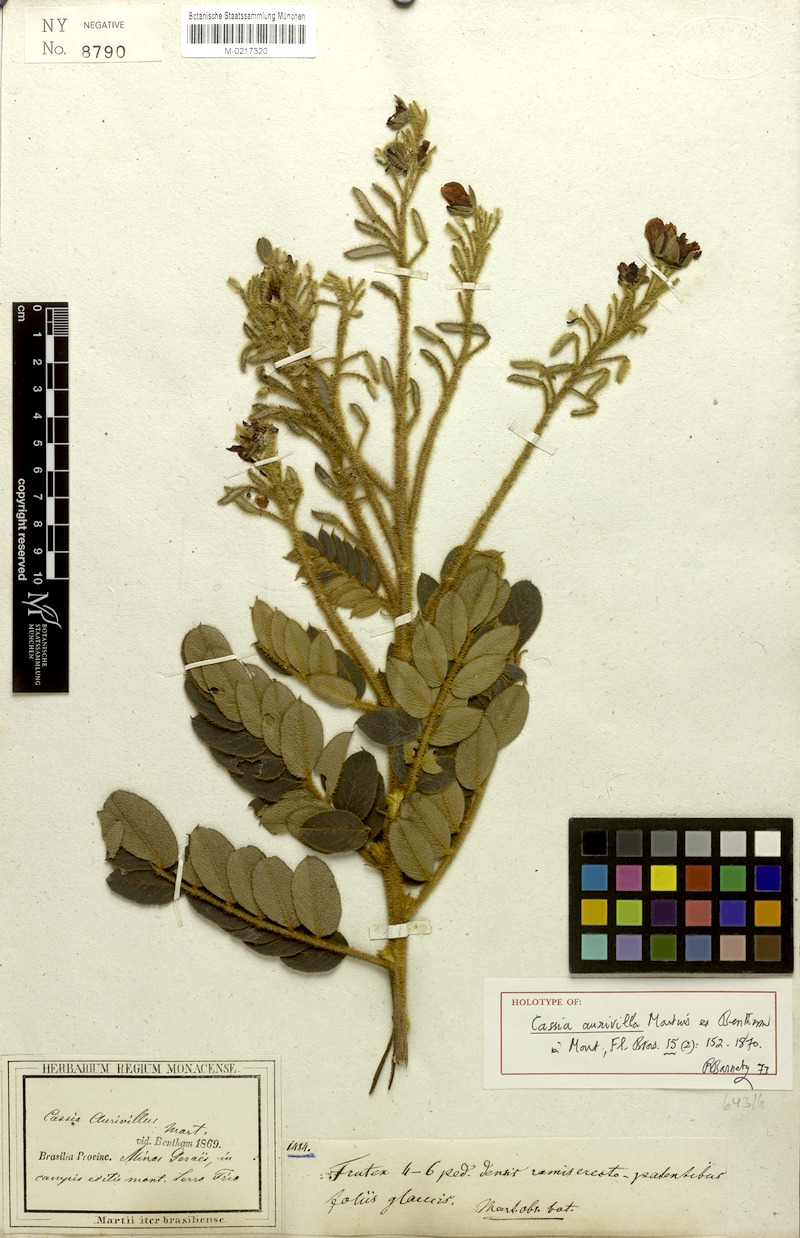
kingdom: Plantae
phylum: Tracheophyta
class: Magnoliopsida
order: Fabales
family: Fabaceae
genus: Chamaecrista
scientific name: Chamaecrista aurivilla
